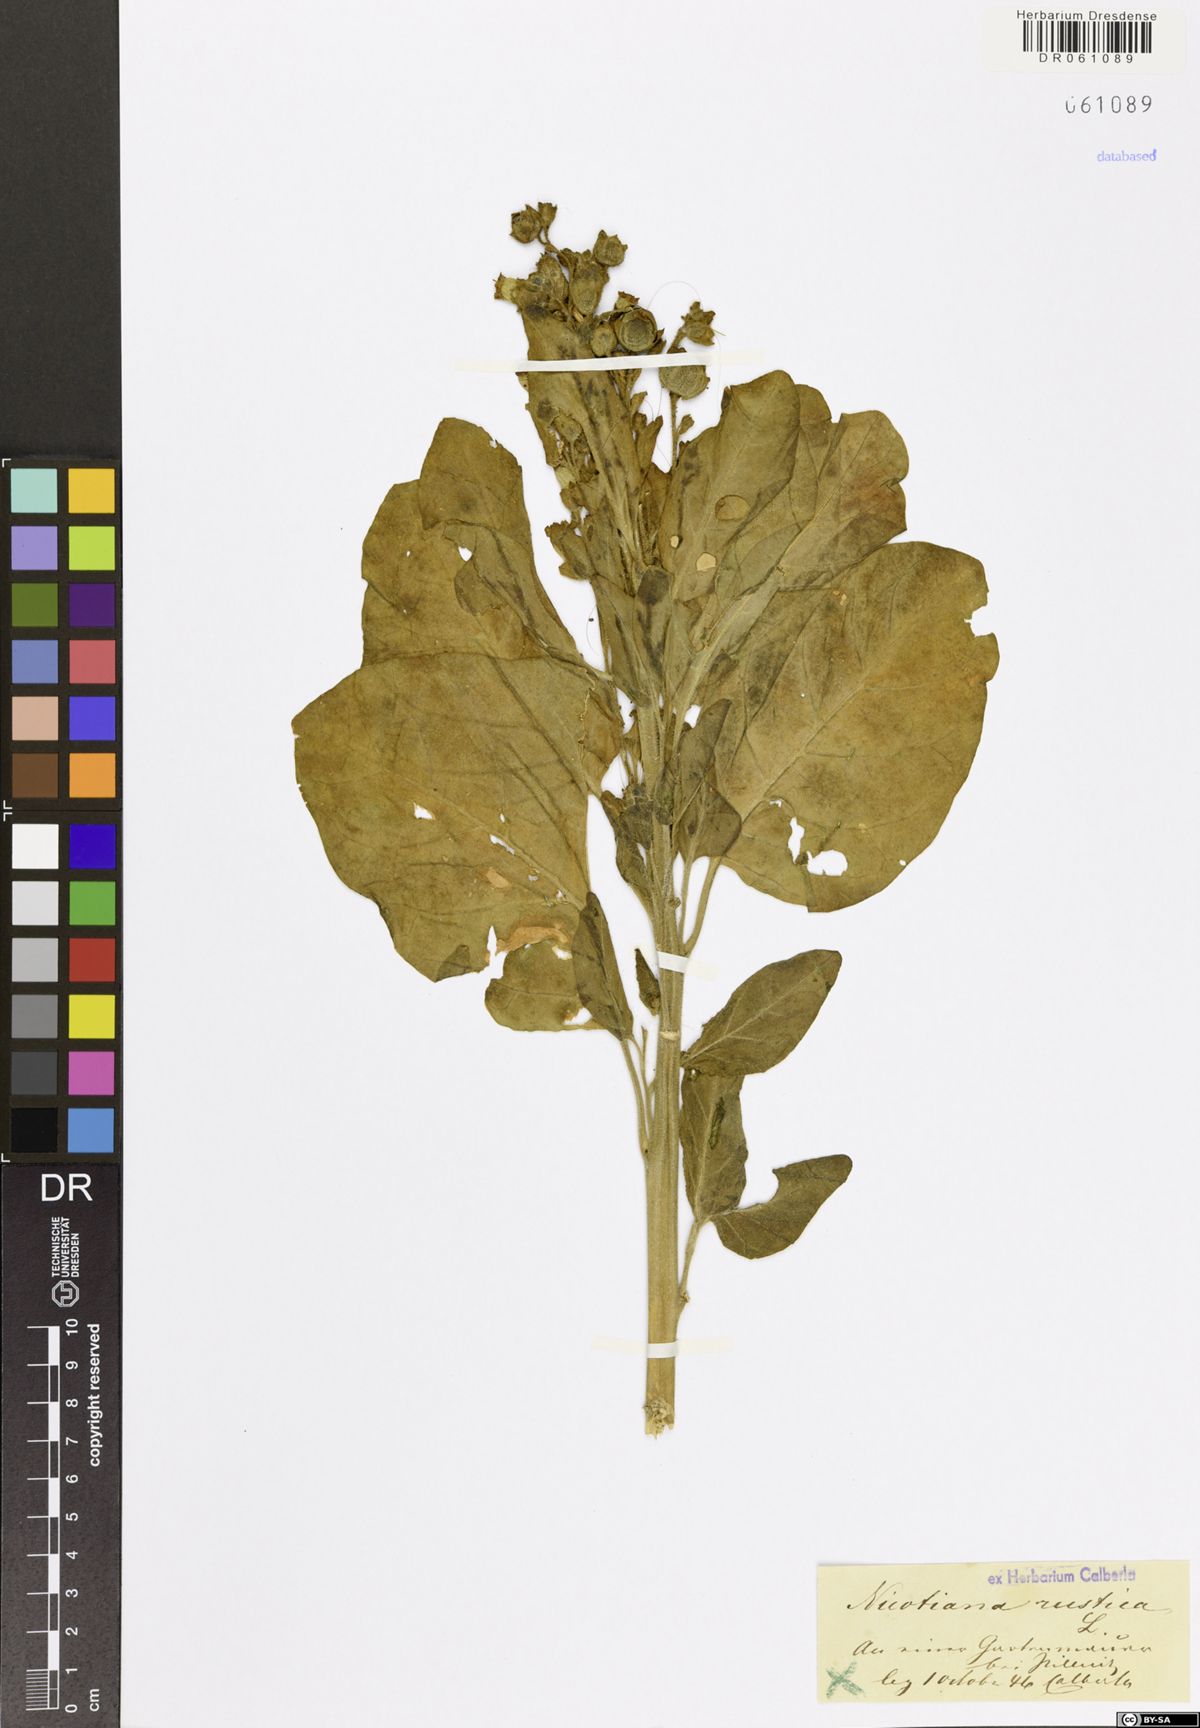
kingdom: Plantae
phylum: Tracheophyta
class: Magnoliopsida
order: Solanales
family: Solanaceae
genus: Nicotiana
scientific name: Nicotiana rustica
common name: Wild tobacco
